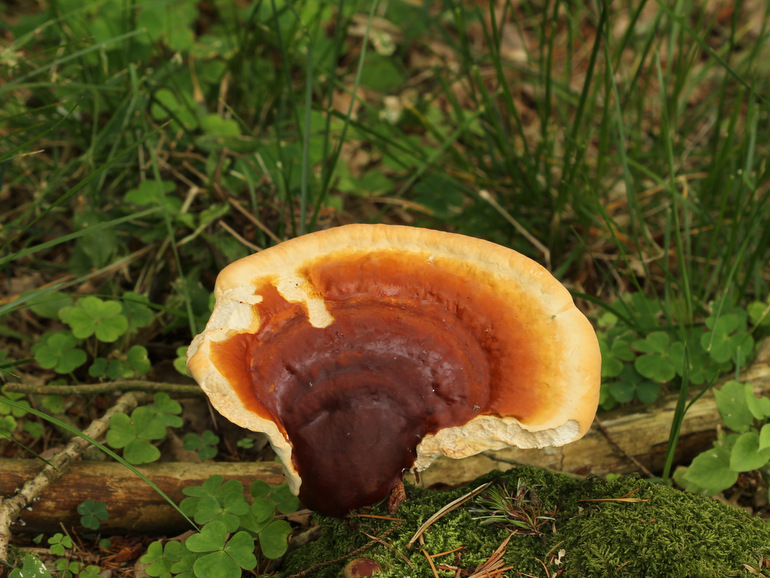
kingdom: Fungi
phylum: Basidiomycota
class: Agaricomycetes
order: Polyporales
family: Polyporaceae
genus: Ganoderma
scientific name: Ganoderma lucidum
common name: skinnende lakporesvamp
